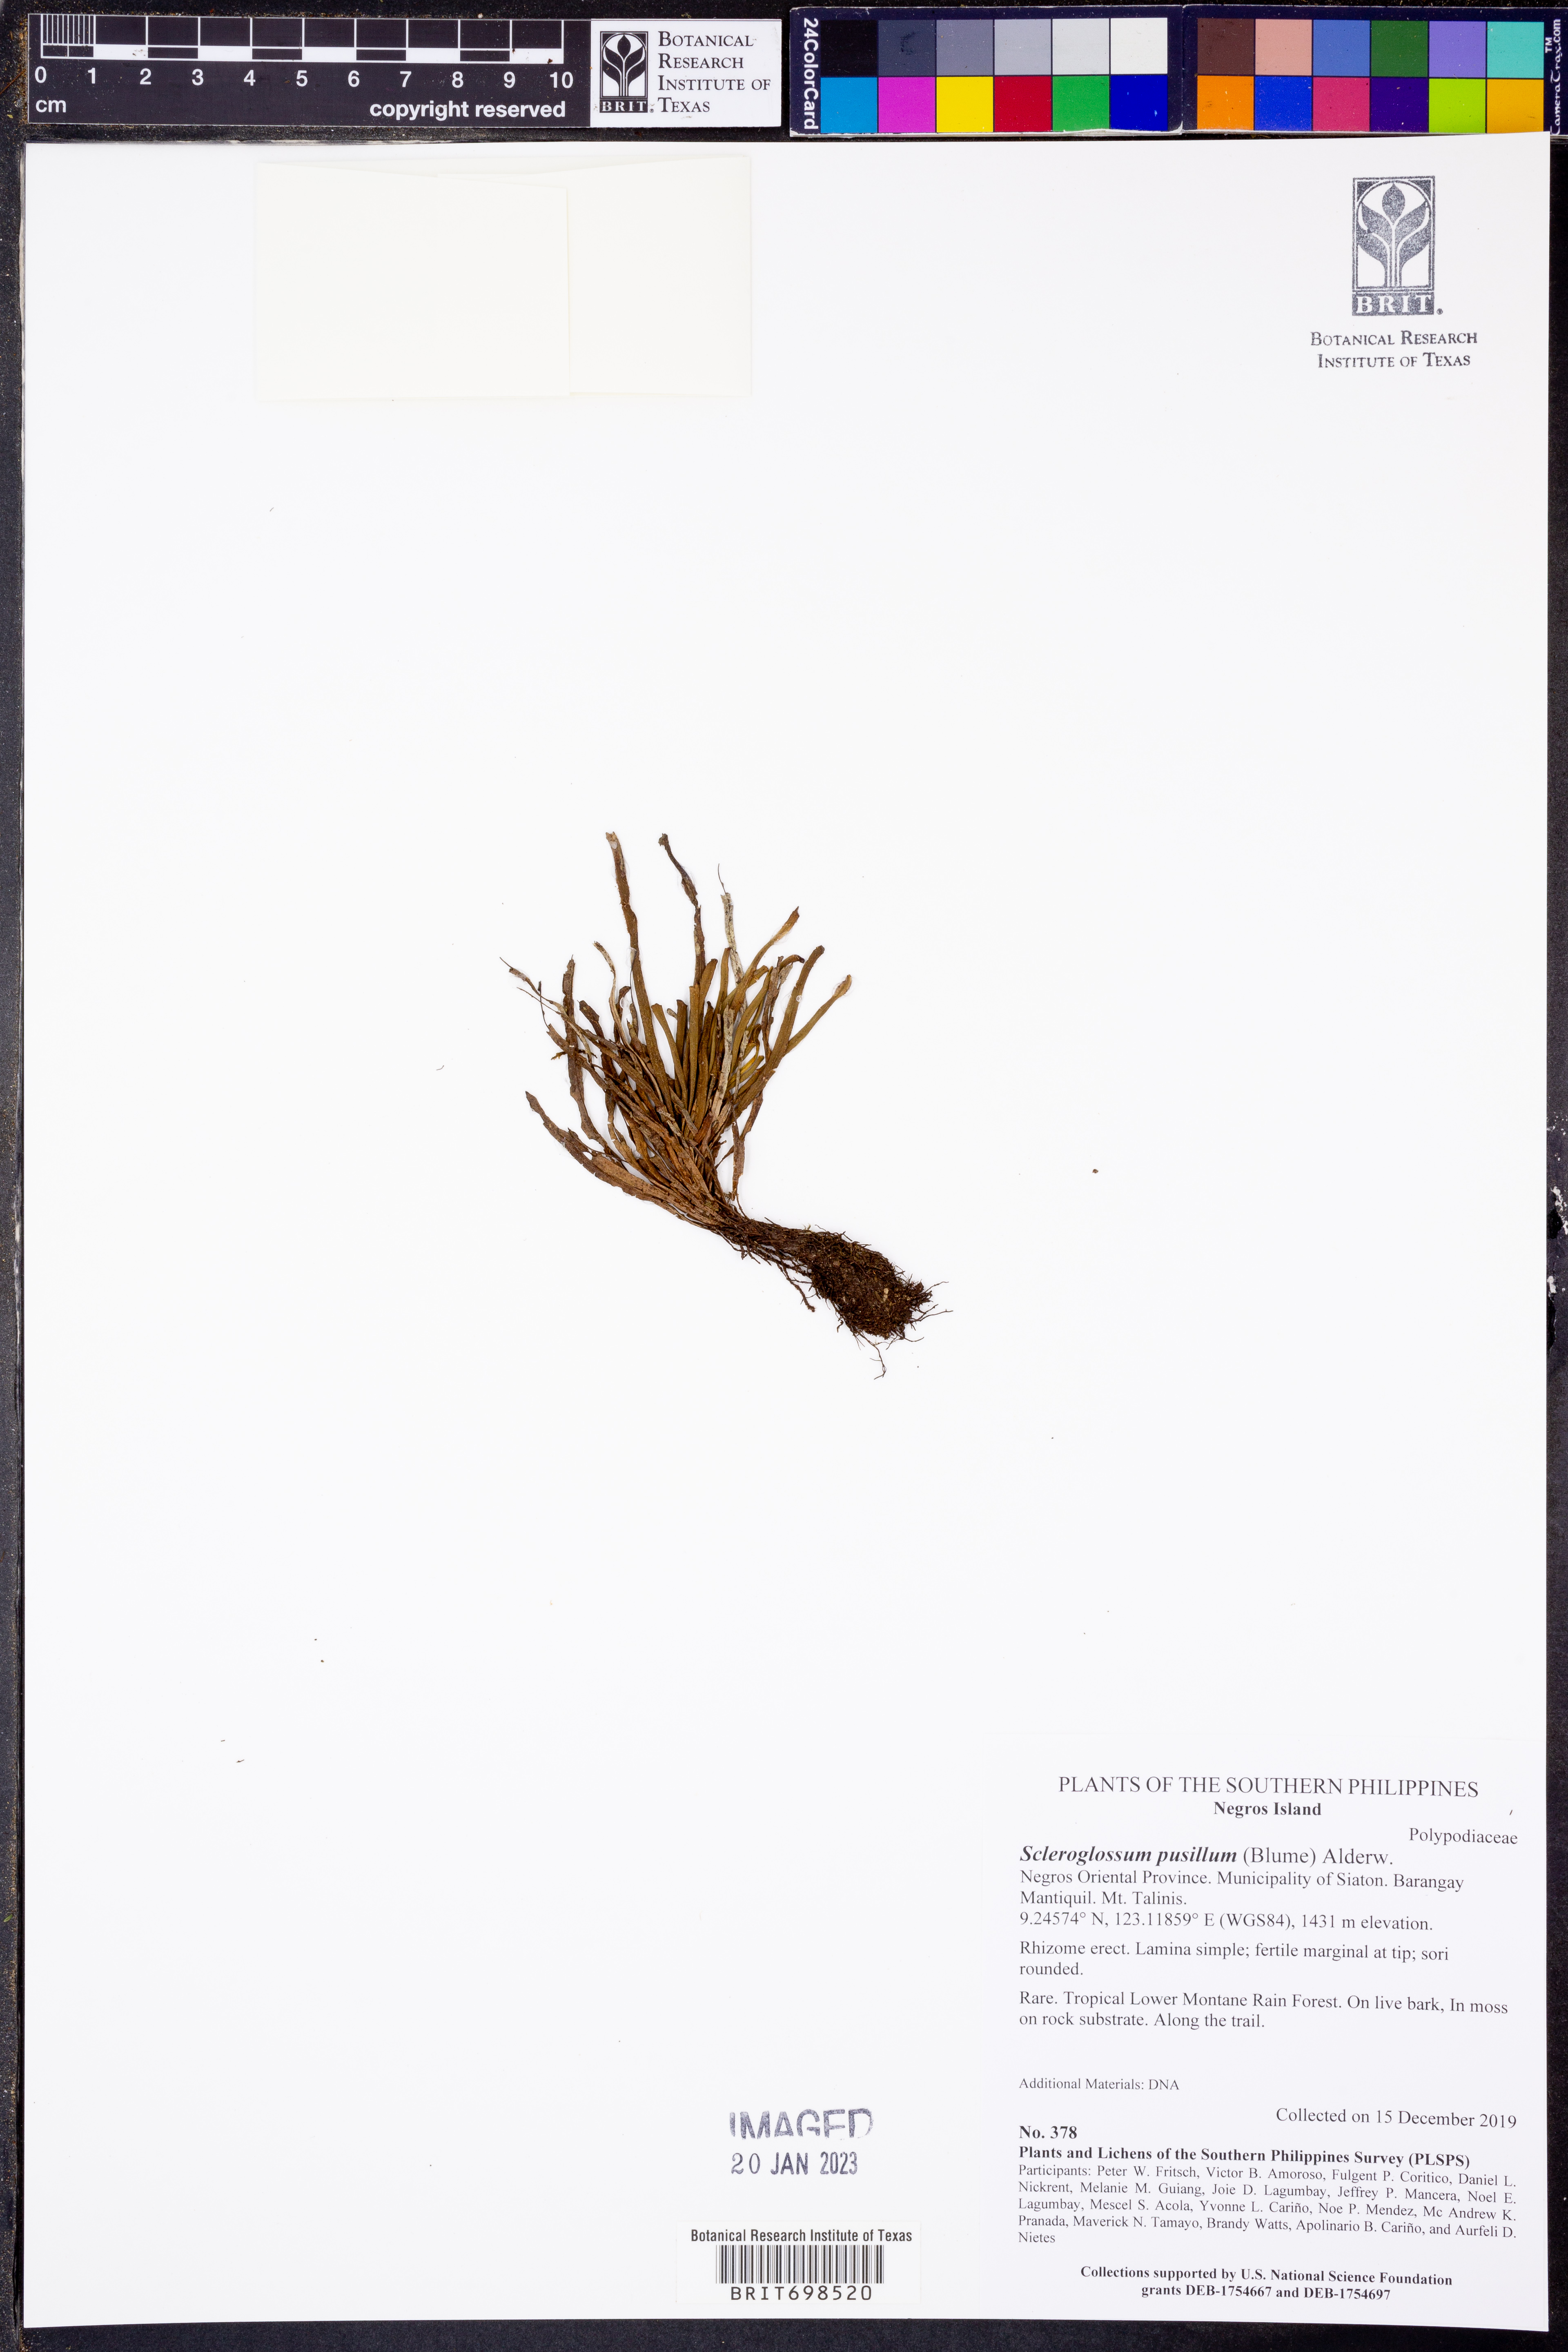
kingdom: Plantae
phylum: Tracheophyta
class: Polypodiopsida
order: Polypodiales
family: Polypodiaceae
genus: Scleroglossum
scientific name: Scleroglossum pusillum
